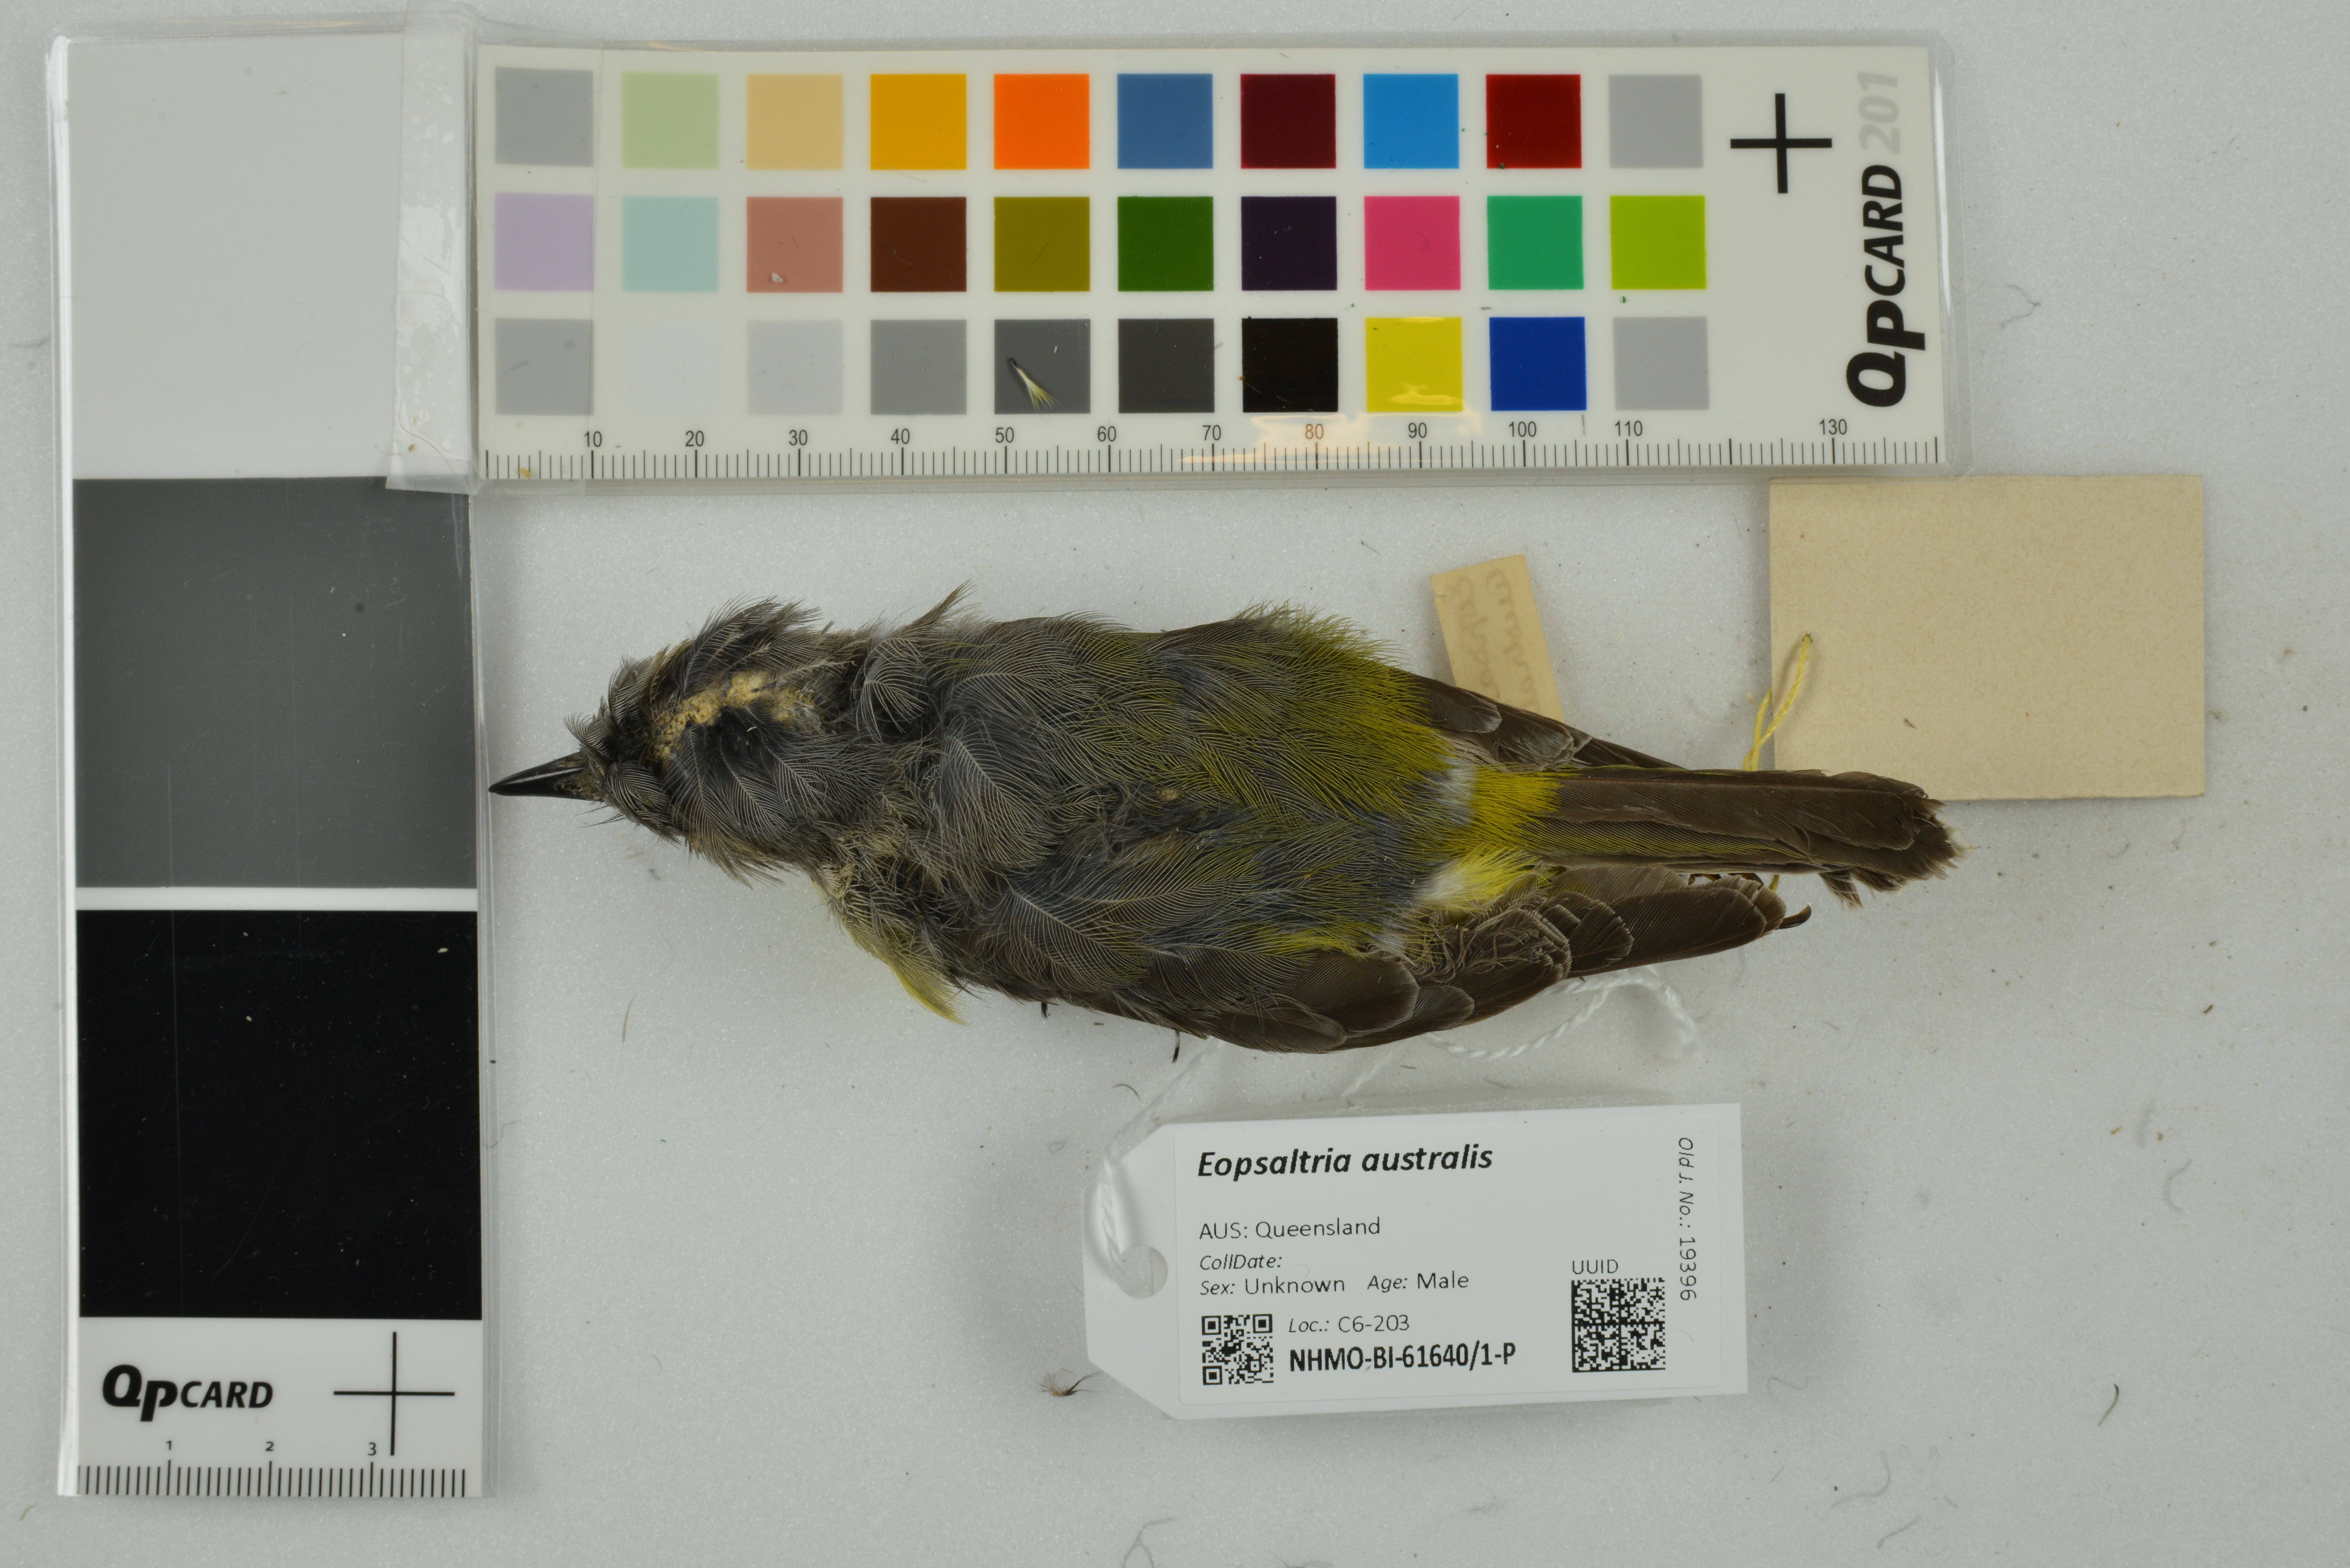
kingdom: Animalia
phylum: Chordata
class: Aves
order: Passeriformes
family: Petroicidae
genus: Eopsaltria
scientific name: Eopsaltria australis
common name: Eastern yellow robin
